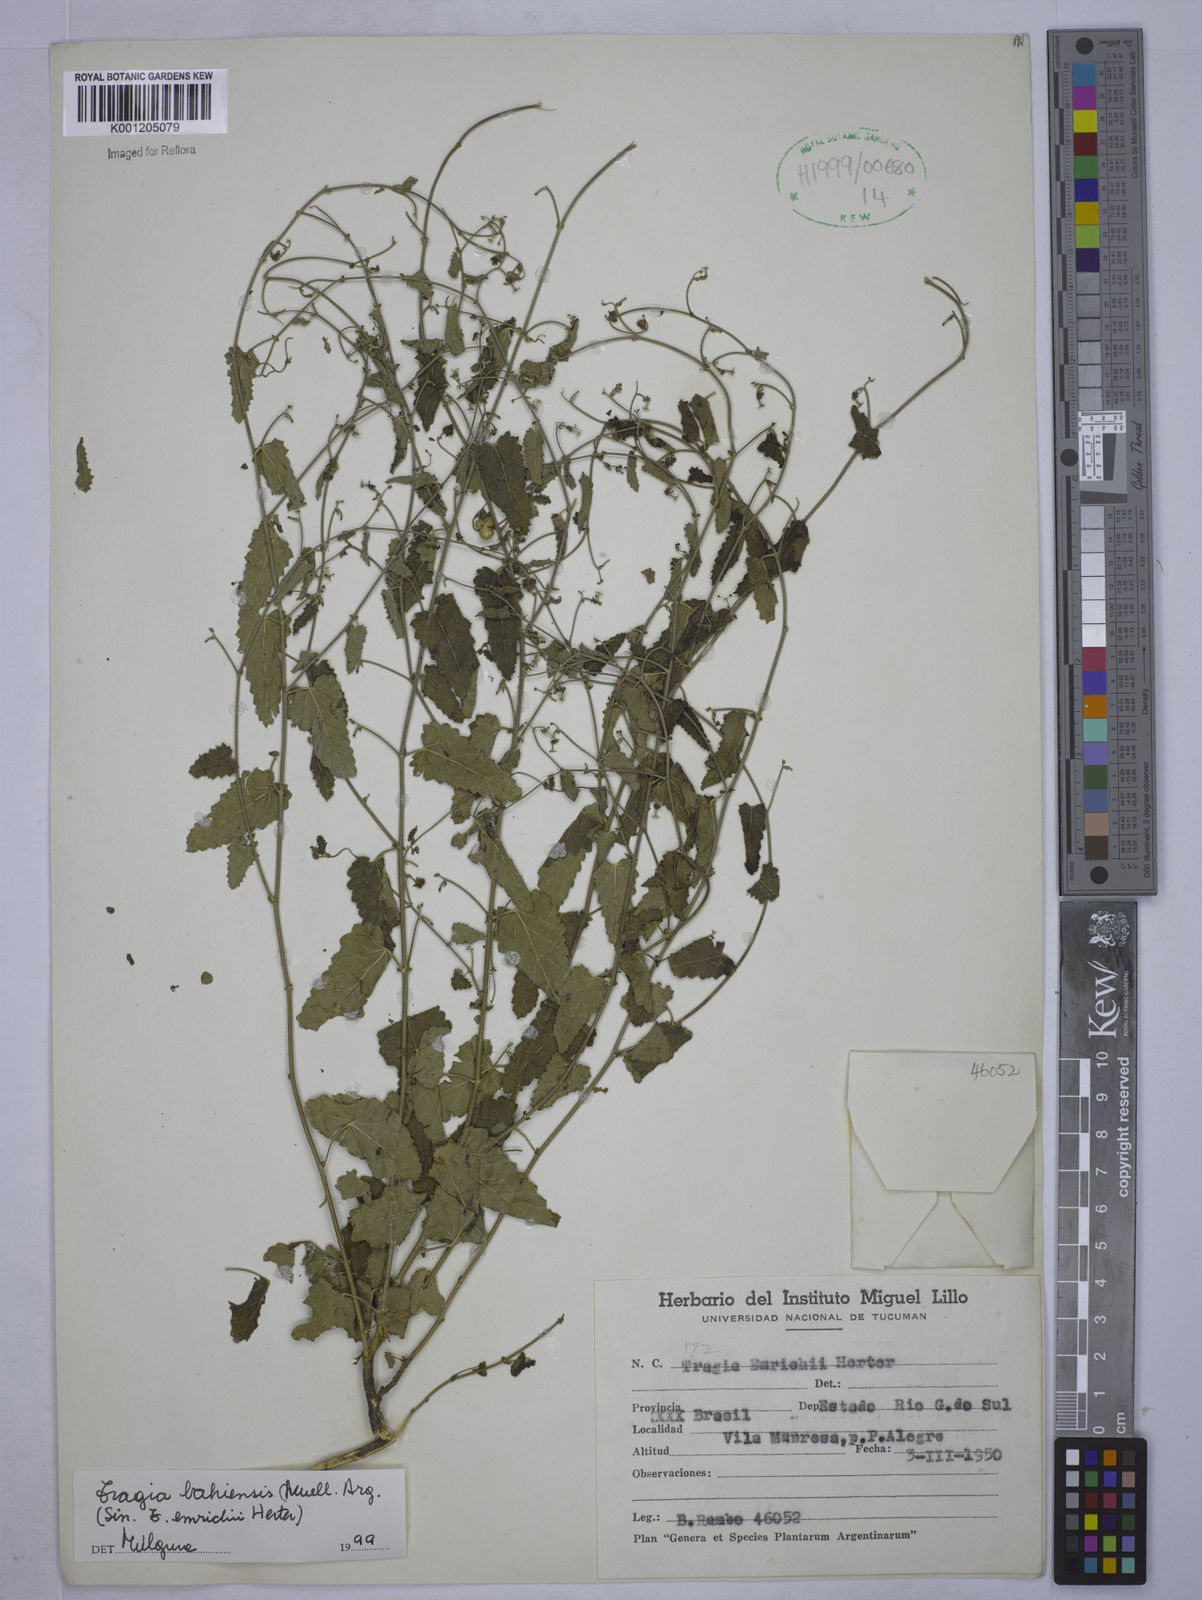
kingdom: Plantae
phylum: Tracheophyta
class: Magnoliopsida
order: Malpighiales
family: Euphorbiaceae
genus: Tragia
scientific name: Tragia
